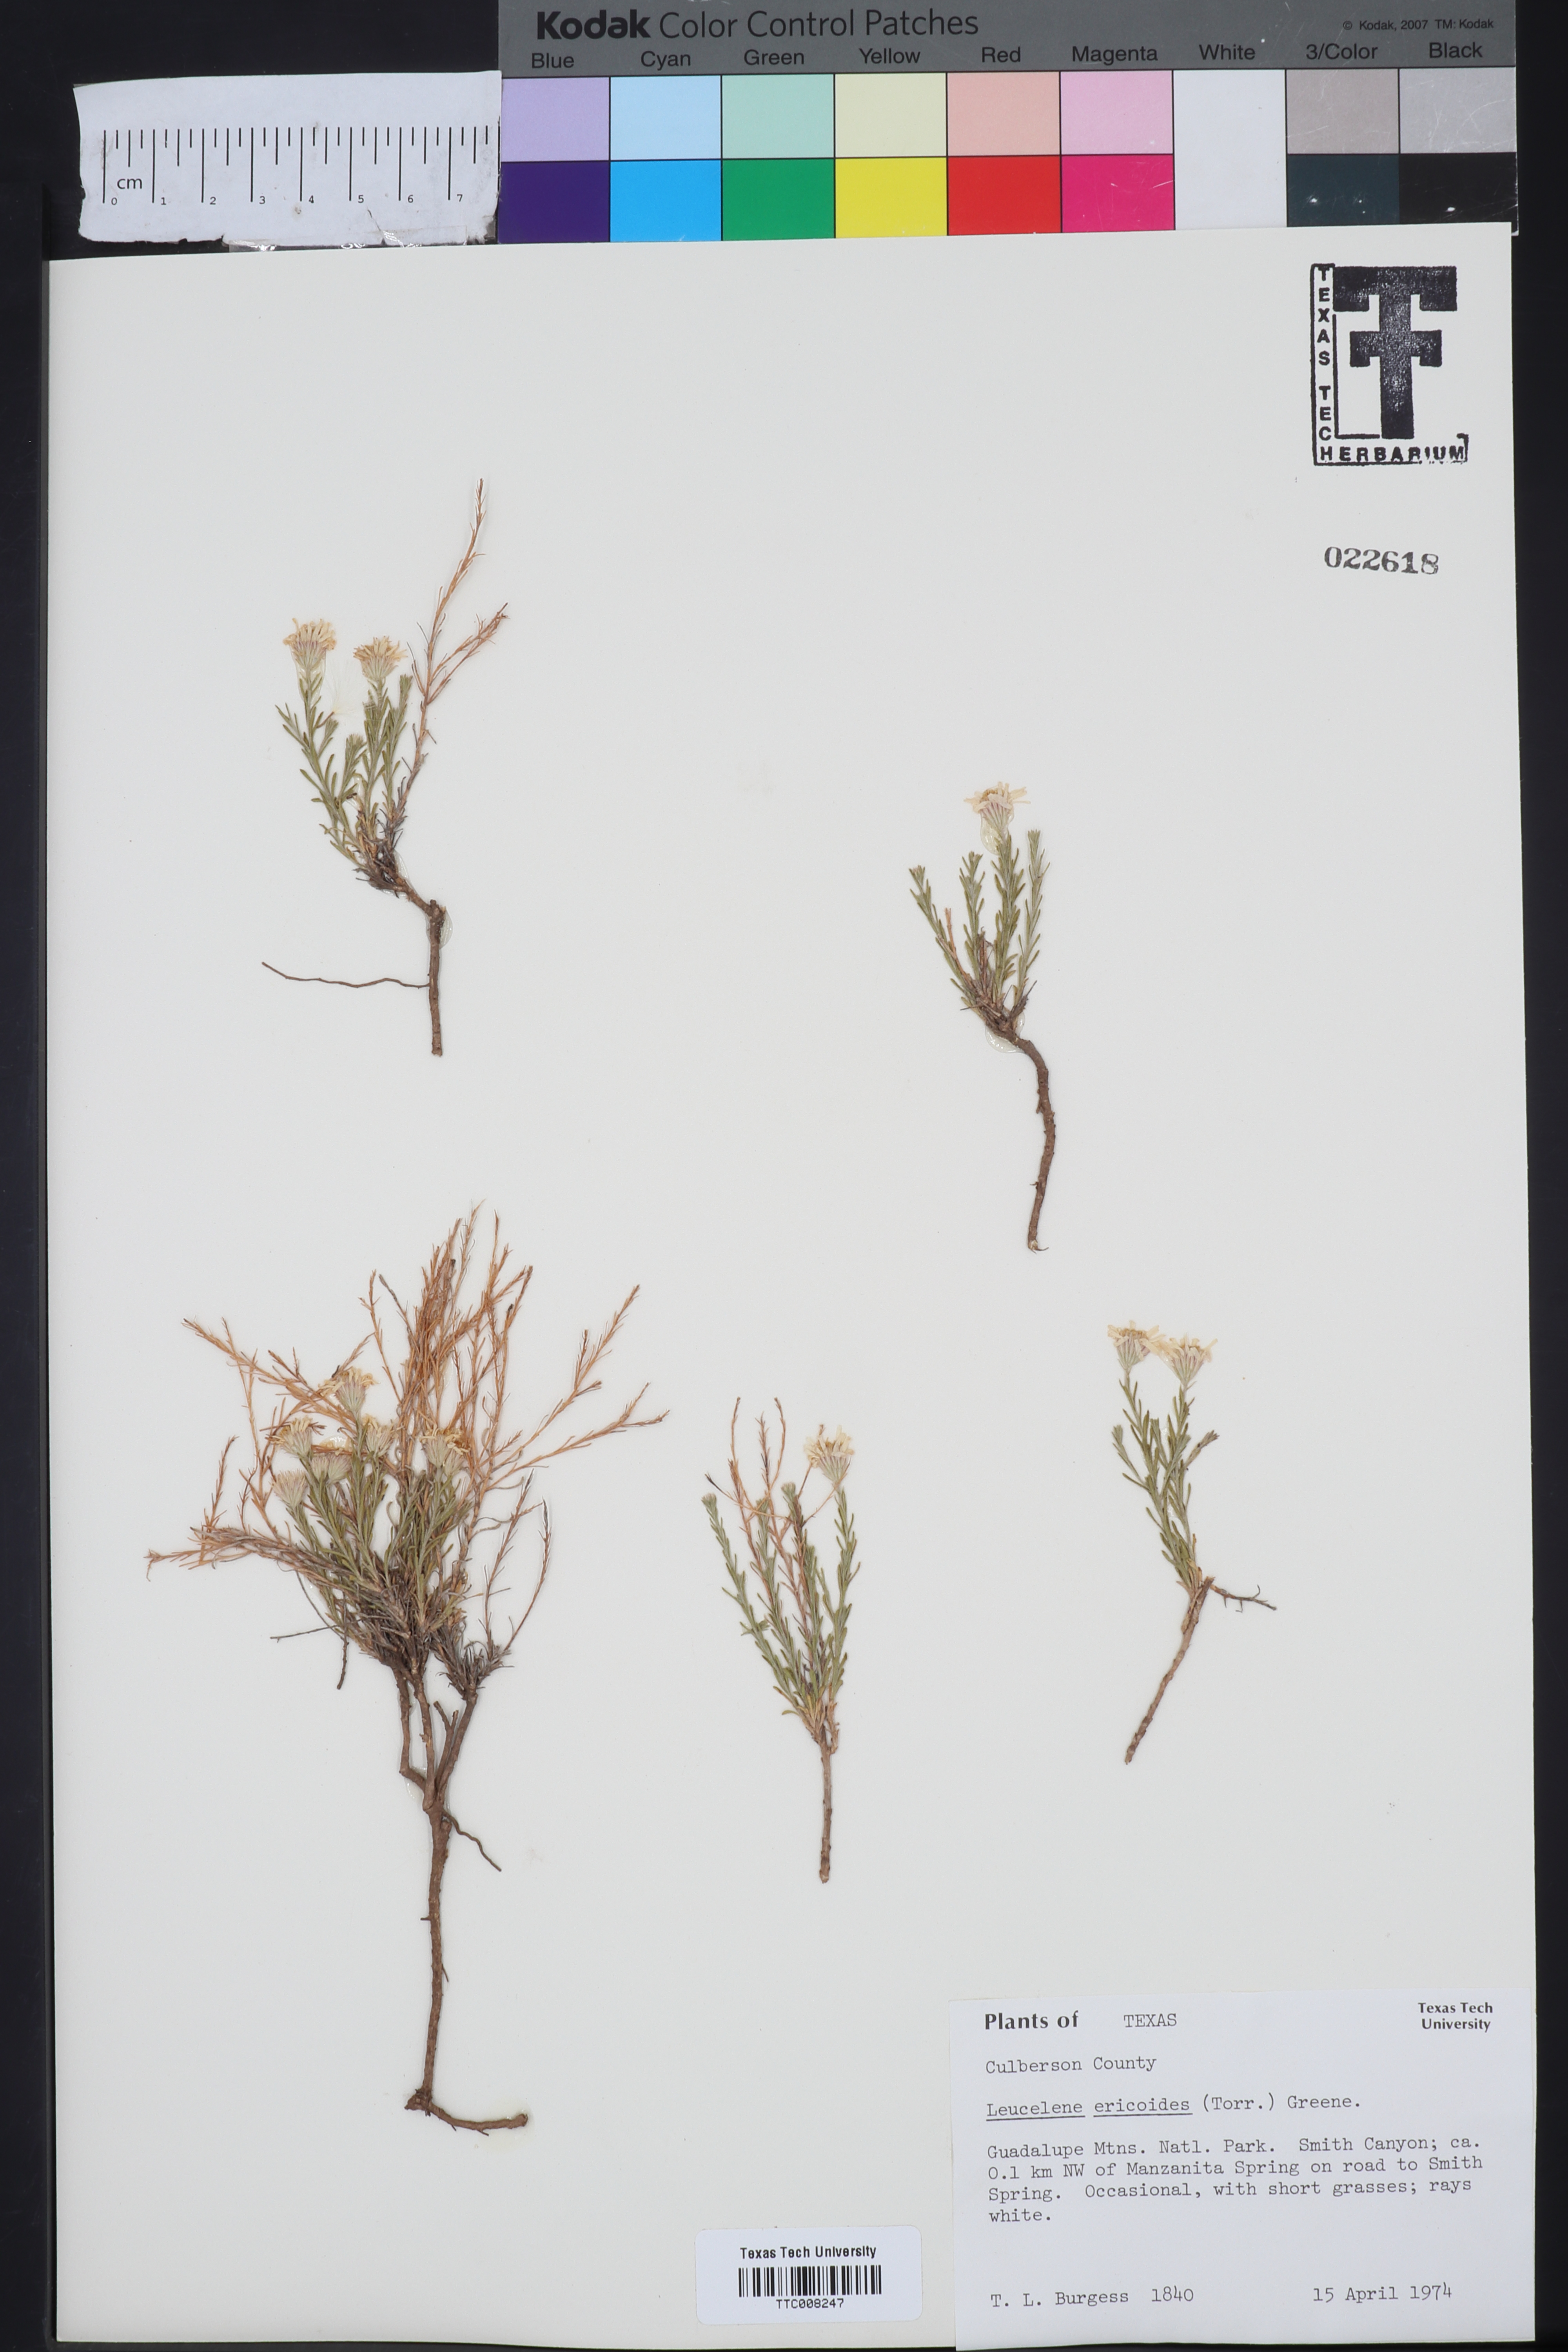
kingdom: Plantae
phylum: Tracheophyta
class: Magnoliopsida
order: Asterales
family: Asteraceae
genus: Chaetopappa
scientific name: Chaetopappa ericoides
